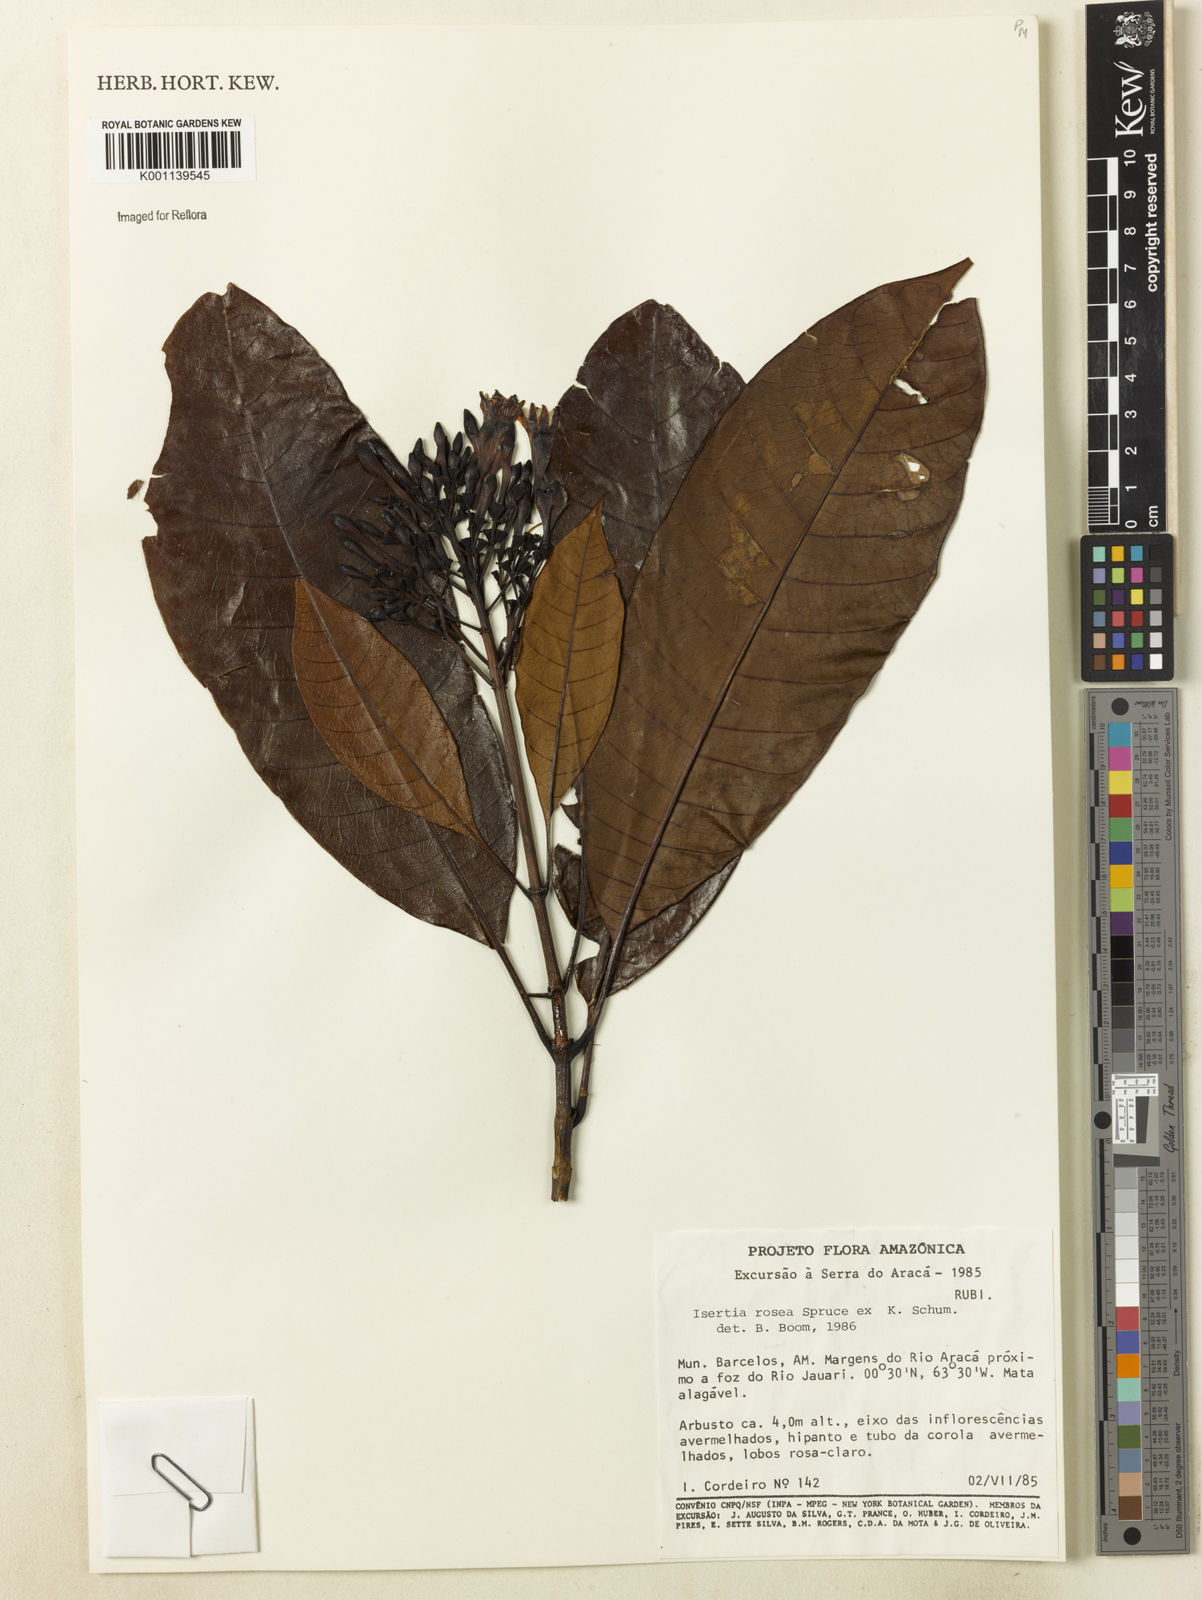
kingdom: Plantae
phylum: Tracheophyta
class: Magnoliopsida
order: Gentianales
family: Rubiaceae
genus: Isertia
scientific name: Isertia rosea
